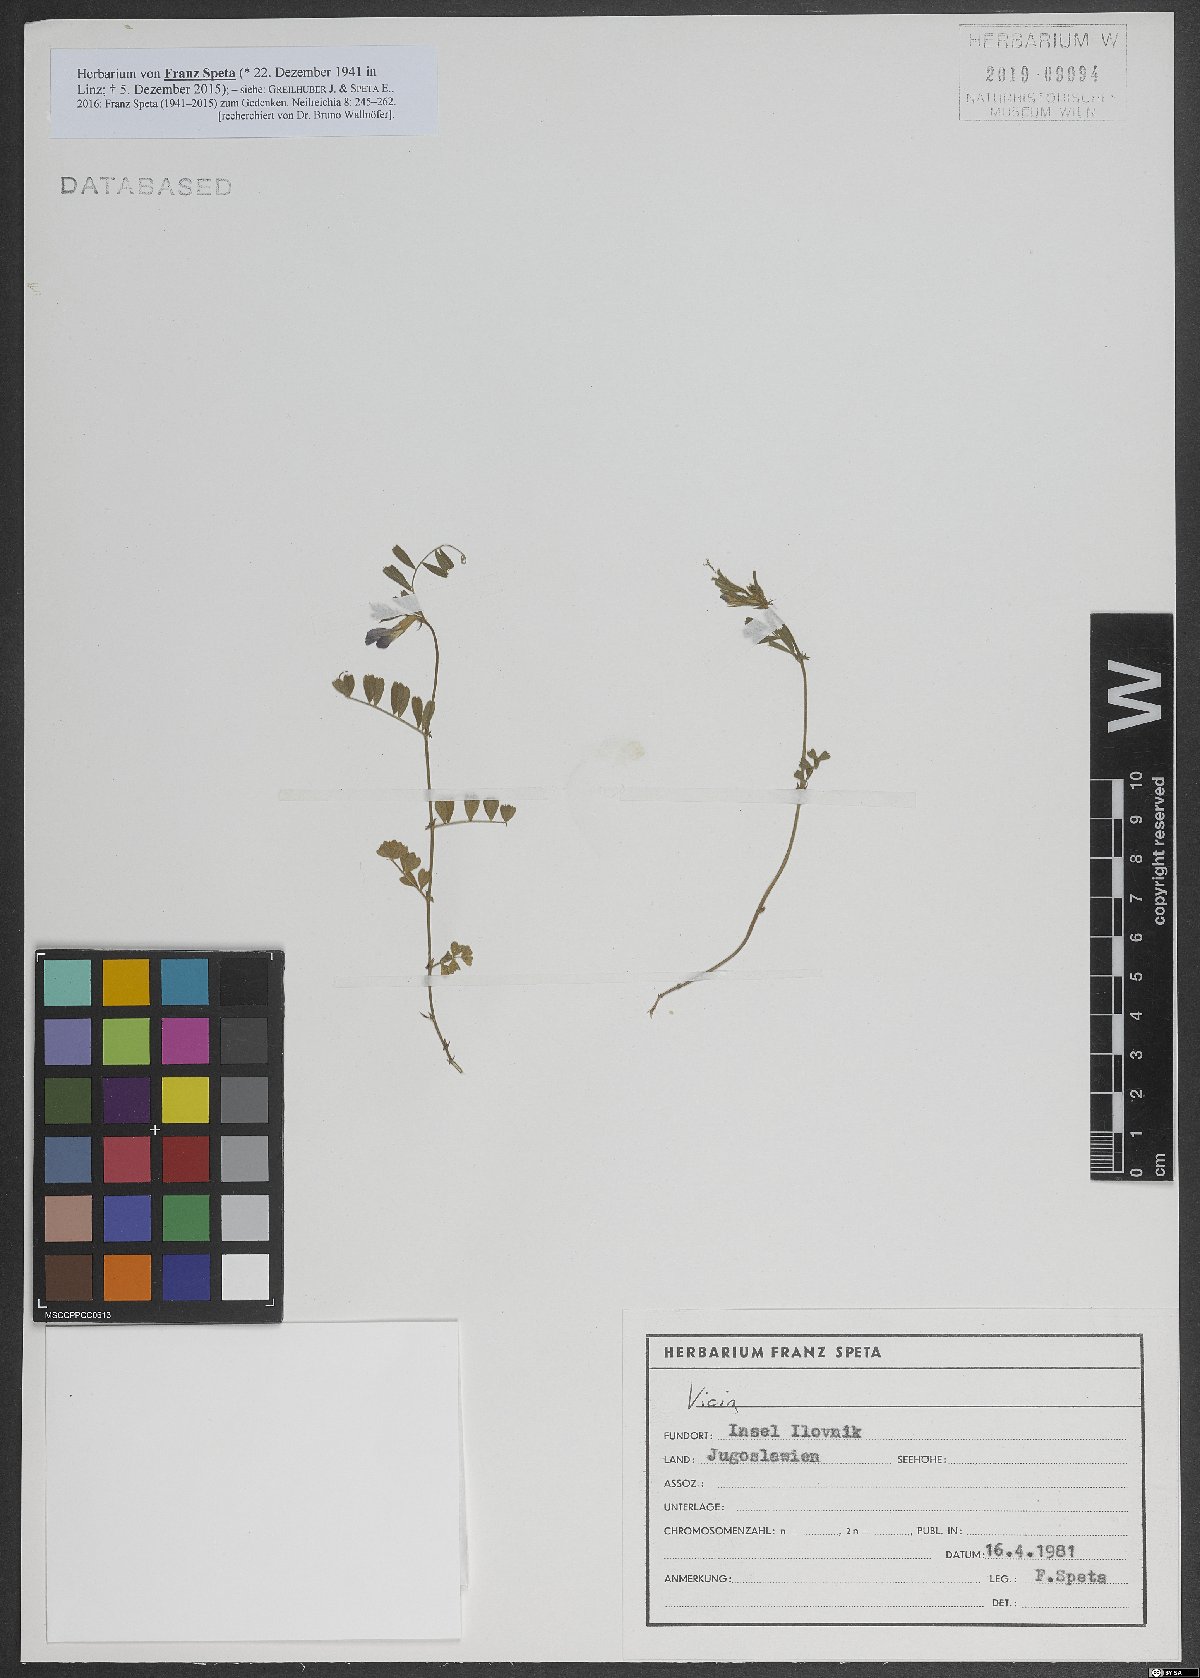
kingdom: Plantae
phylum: Tracheophyta
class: Magnoliopsida
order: Fabales
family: Fabaceae
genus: Vicia
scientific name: Vicia
